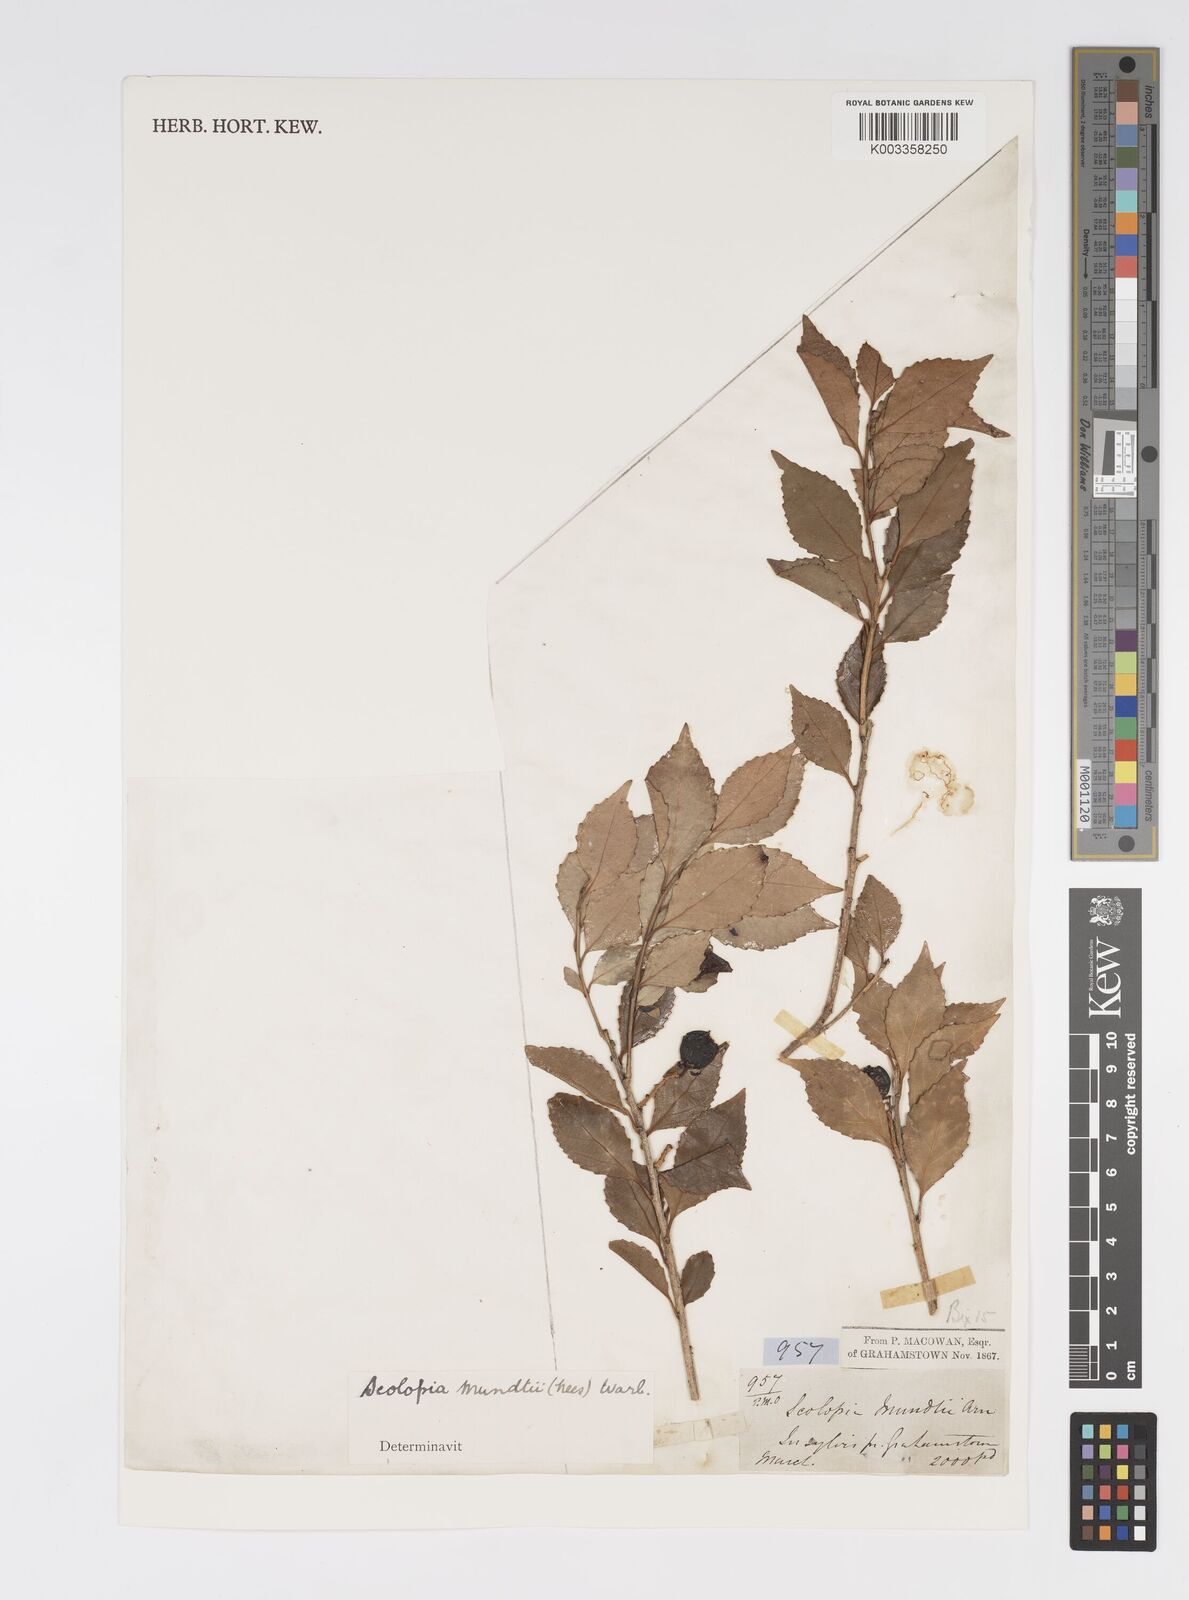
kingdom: Plantae
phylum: Tracheophyta
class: Magnoliopsida
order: Malpighiales
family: Salicaceae
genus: Scolopia
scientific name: Scolopia mundii
